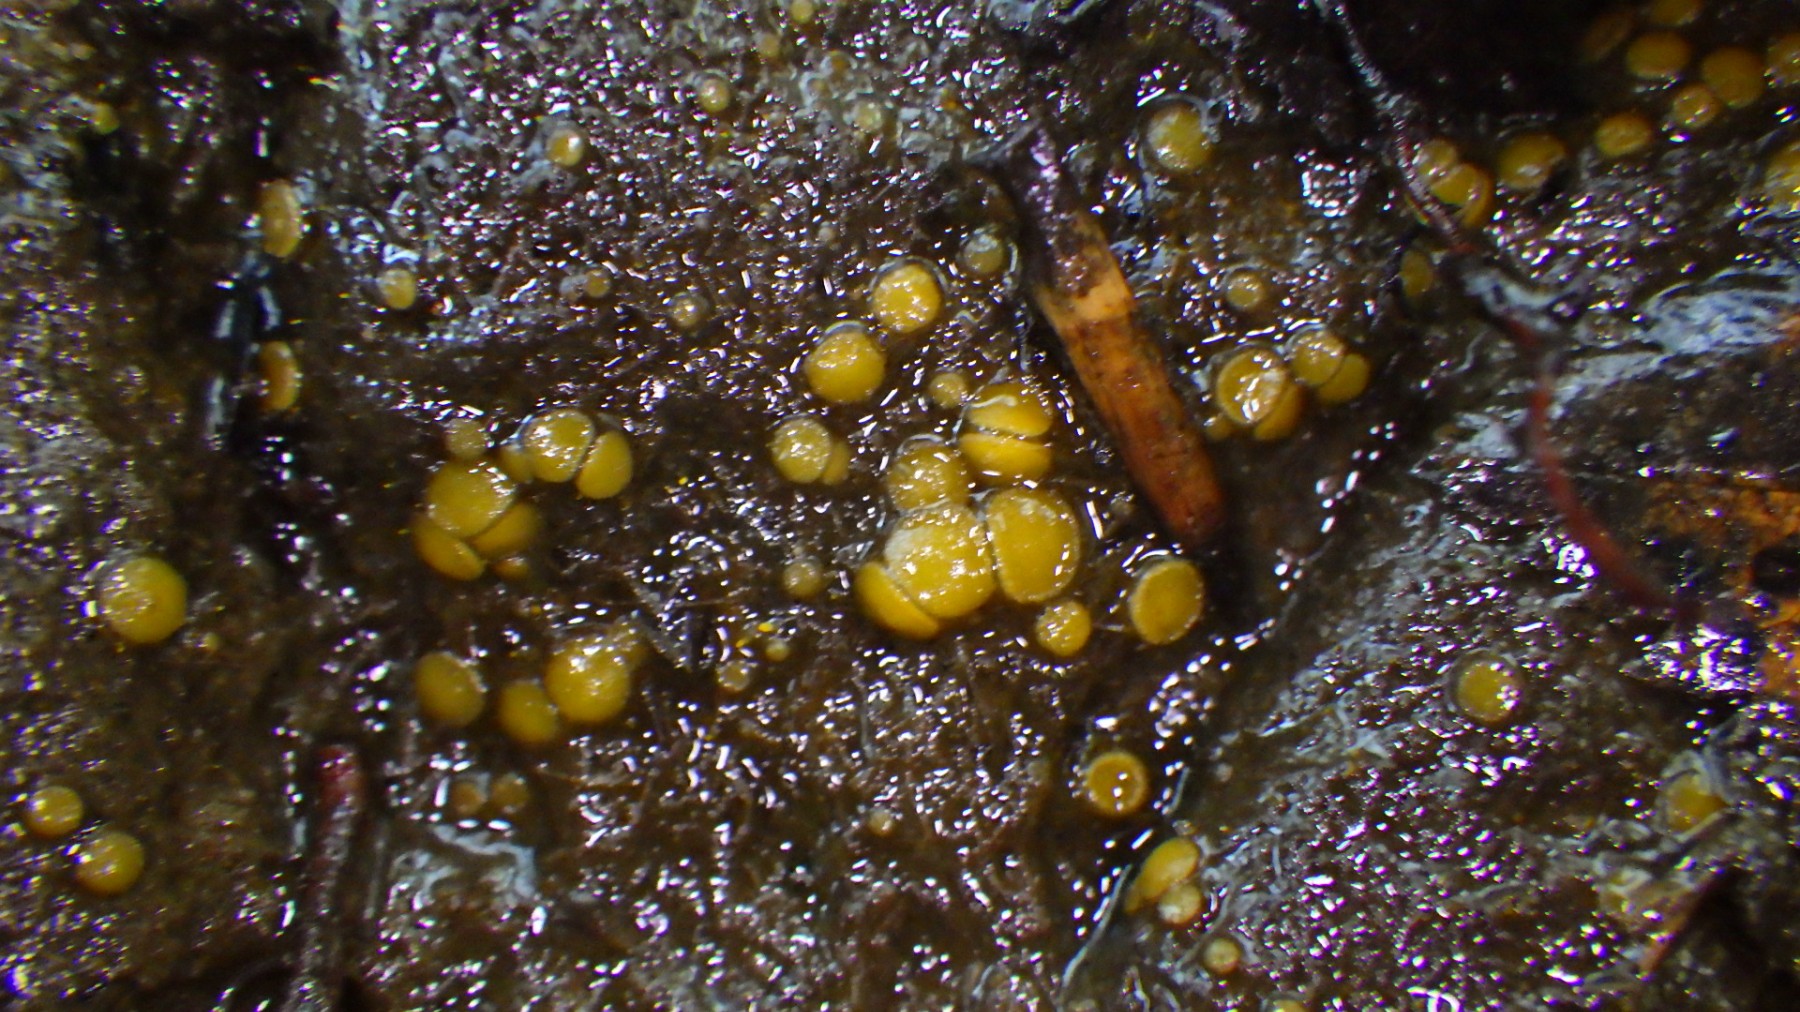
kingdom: Fungi
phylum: Ascomycota
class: Pezizomycetes
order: Pezizales
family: Pyronemataceae
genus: Cheilymenia
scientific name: Cheilymenia granulata
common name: møgbæger
